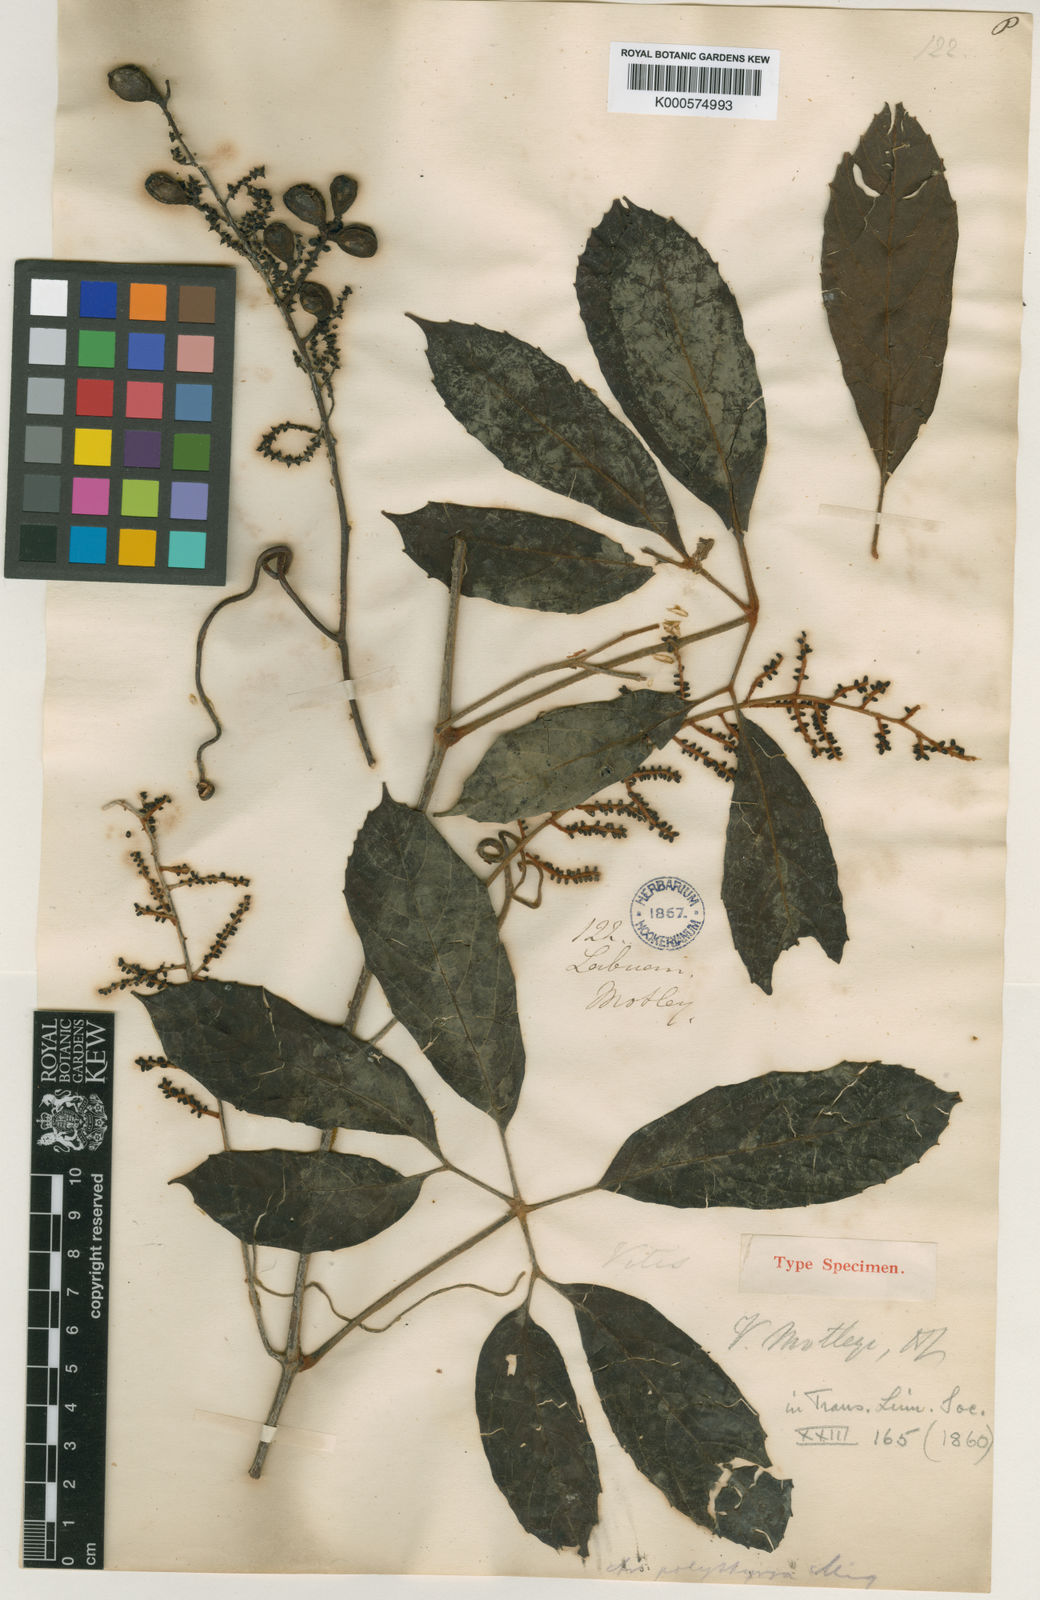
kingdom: Plantae
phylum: Tracheophyta
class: Magnoliopsida
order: Vitales
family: Vitaceae
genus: Ampelocissus
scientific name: Ampelocissus mottleyi
